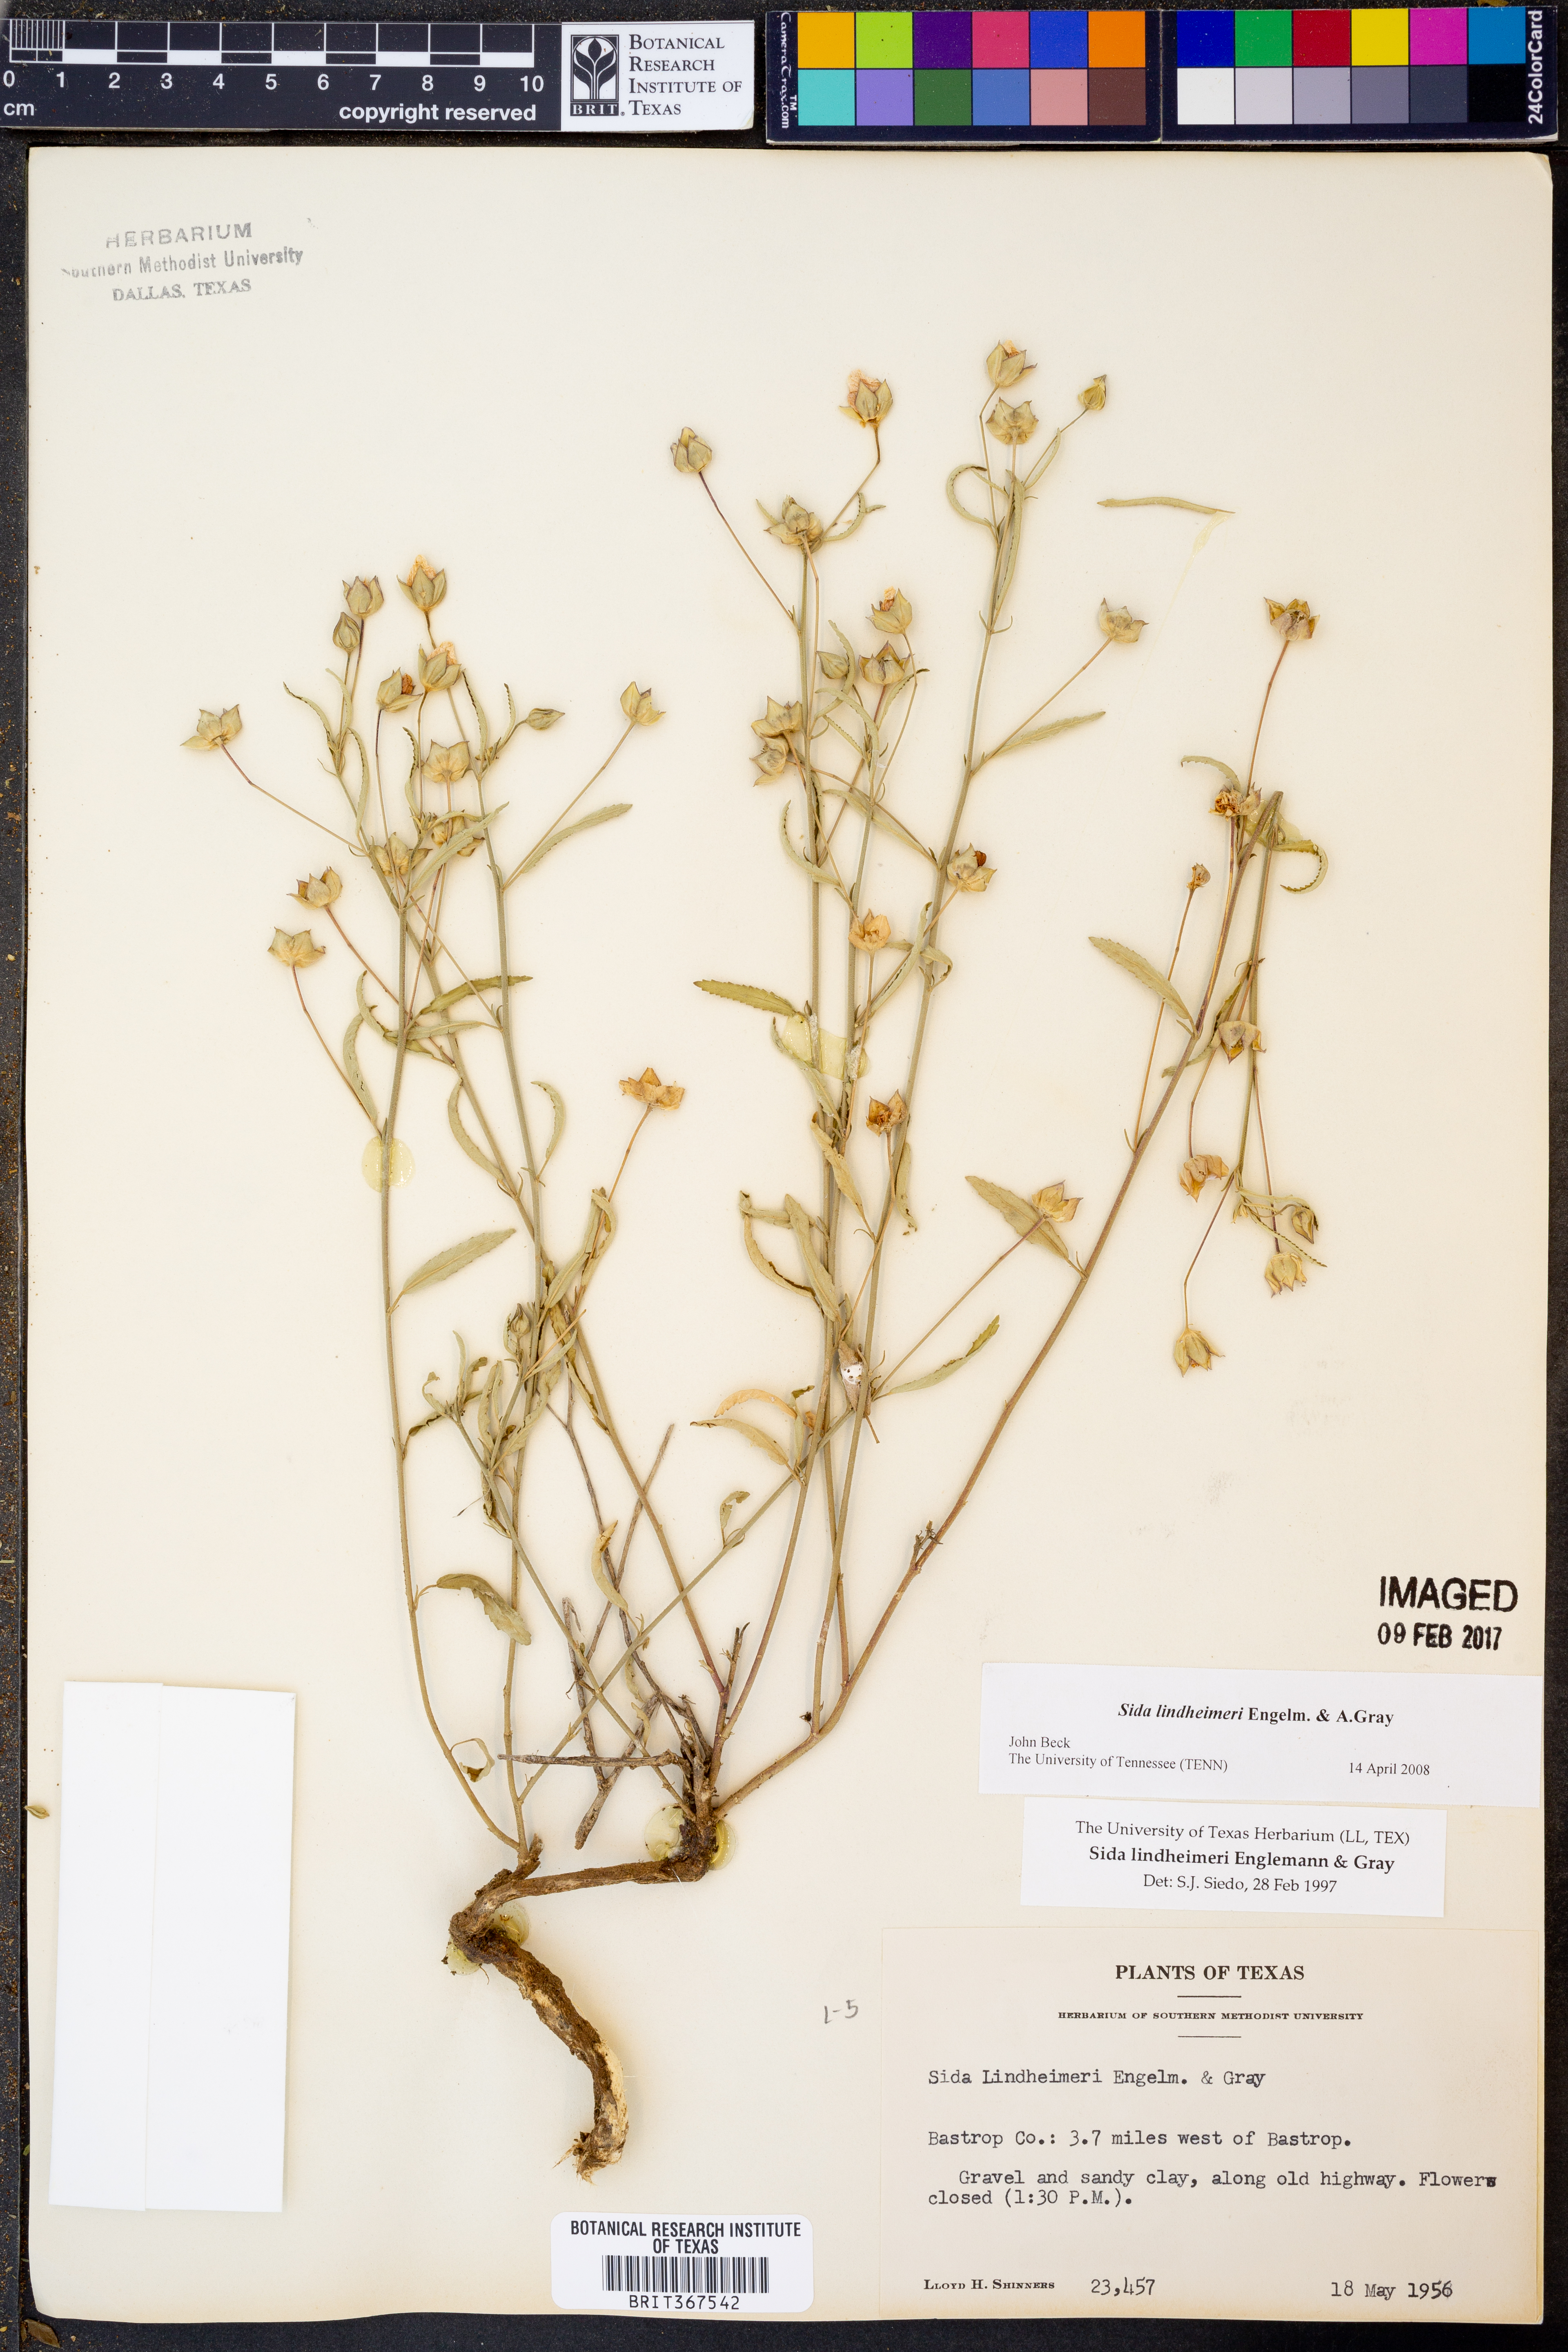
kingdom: Plantae
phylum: Tracheophyta
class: Magnoliopsida
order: Malvales
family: Malvaceae
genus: Sida
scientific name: Sida lindheimeri
